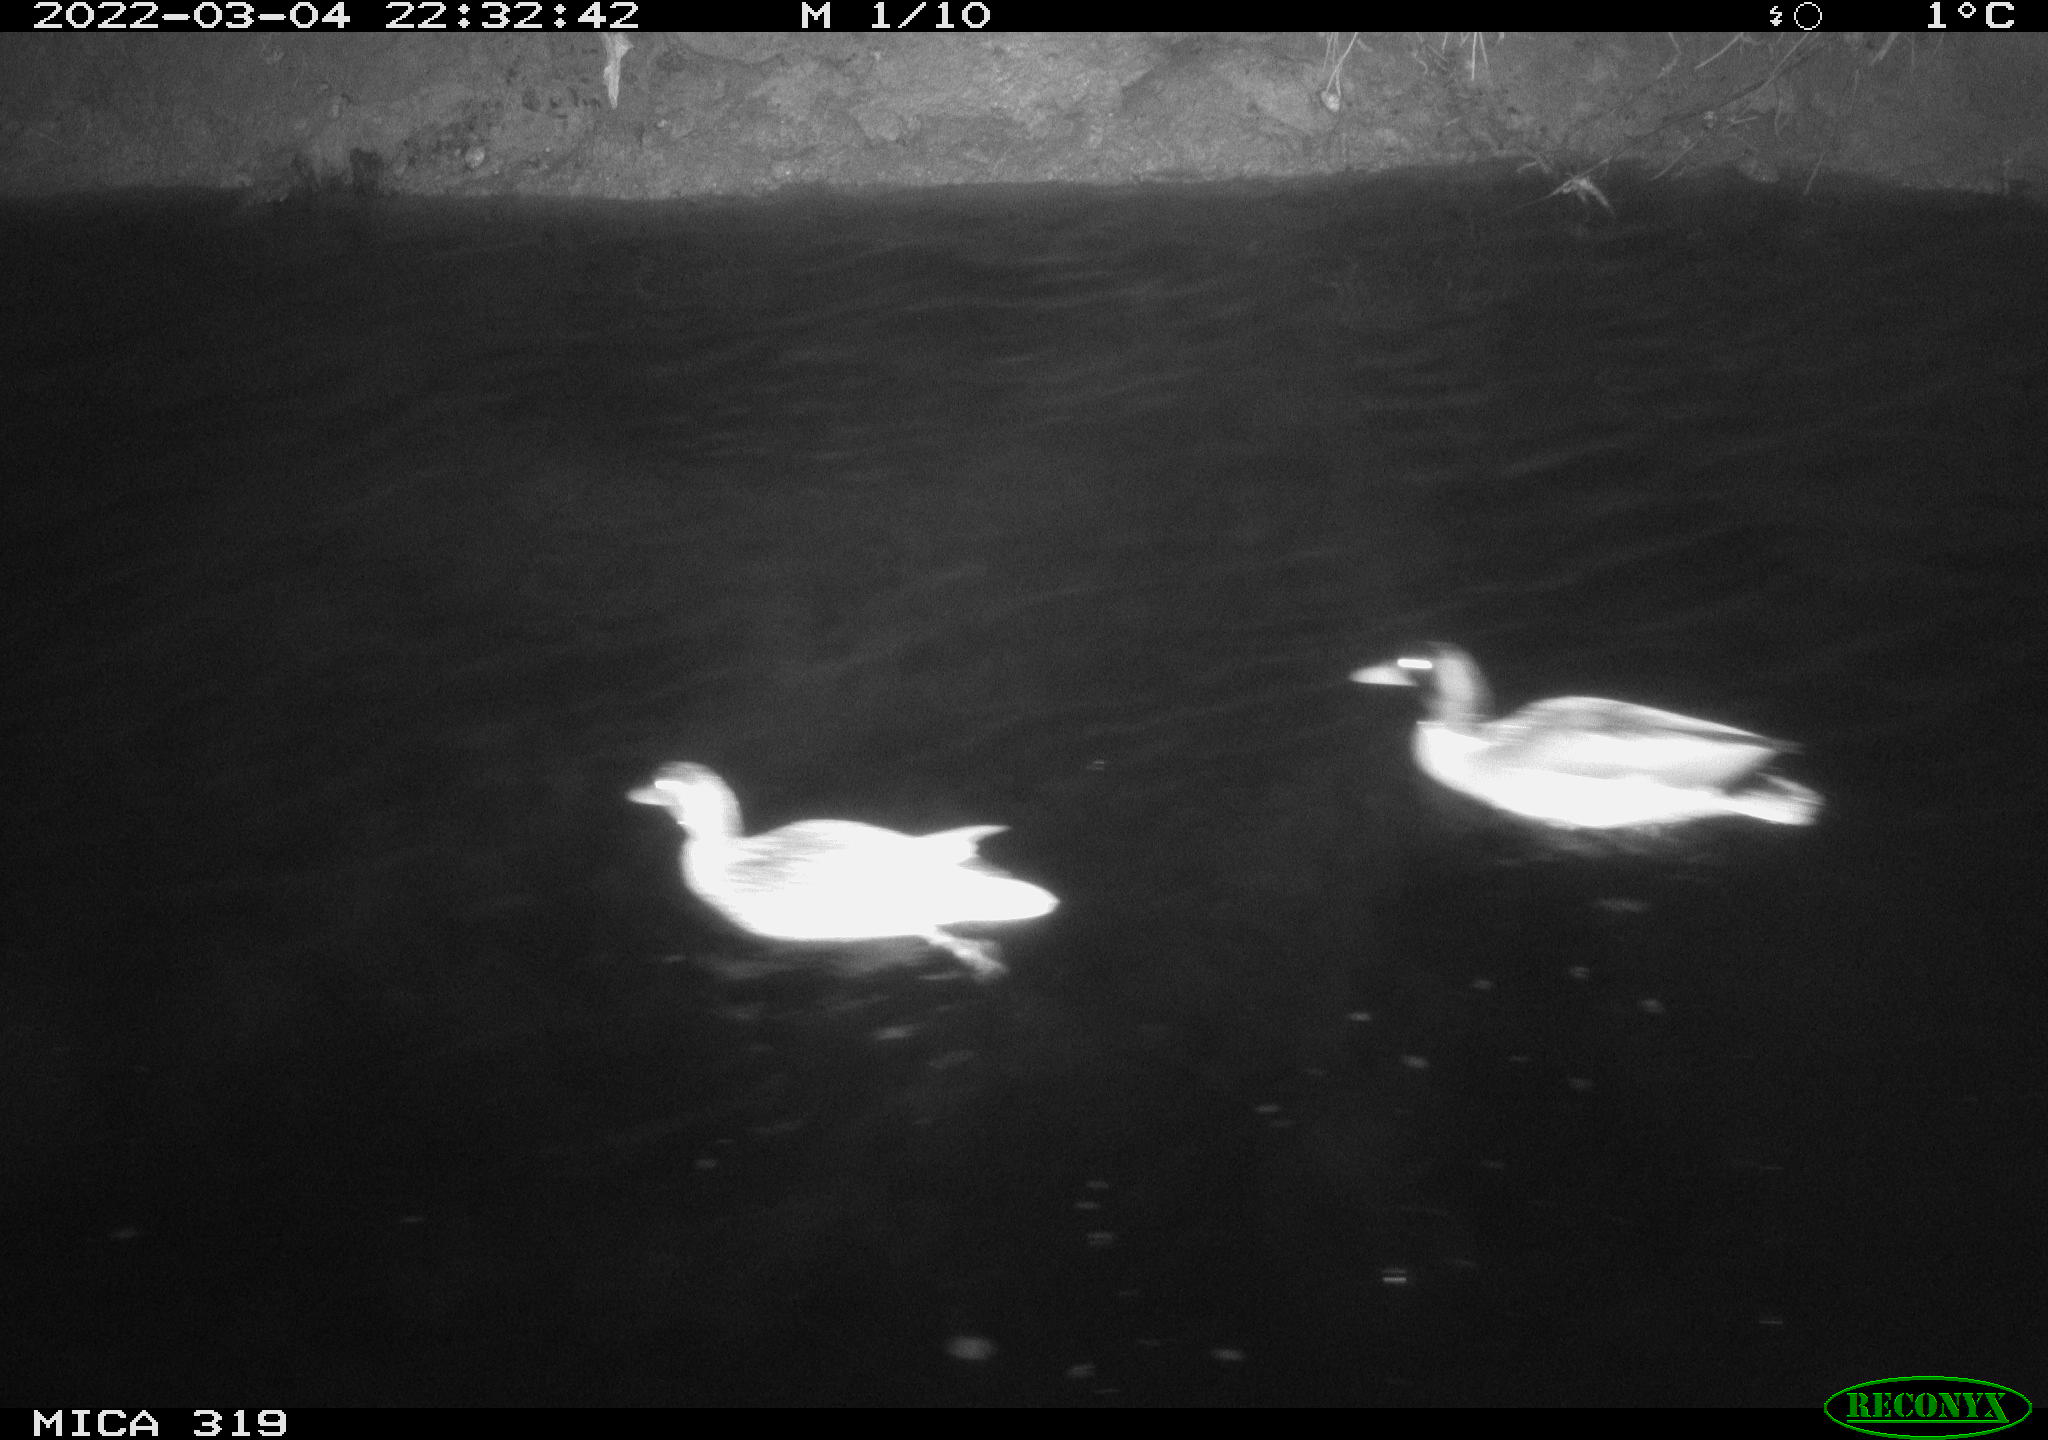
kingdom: Animalia
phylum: Chordata
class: Aves
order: Anseriformes
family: Anatidae
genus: Anas
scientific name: Anas platyrhynchos
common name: Mallard
